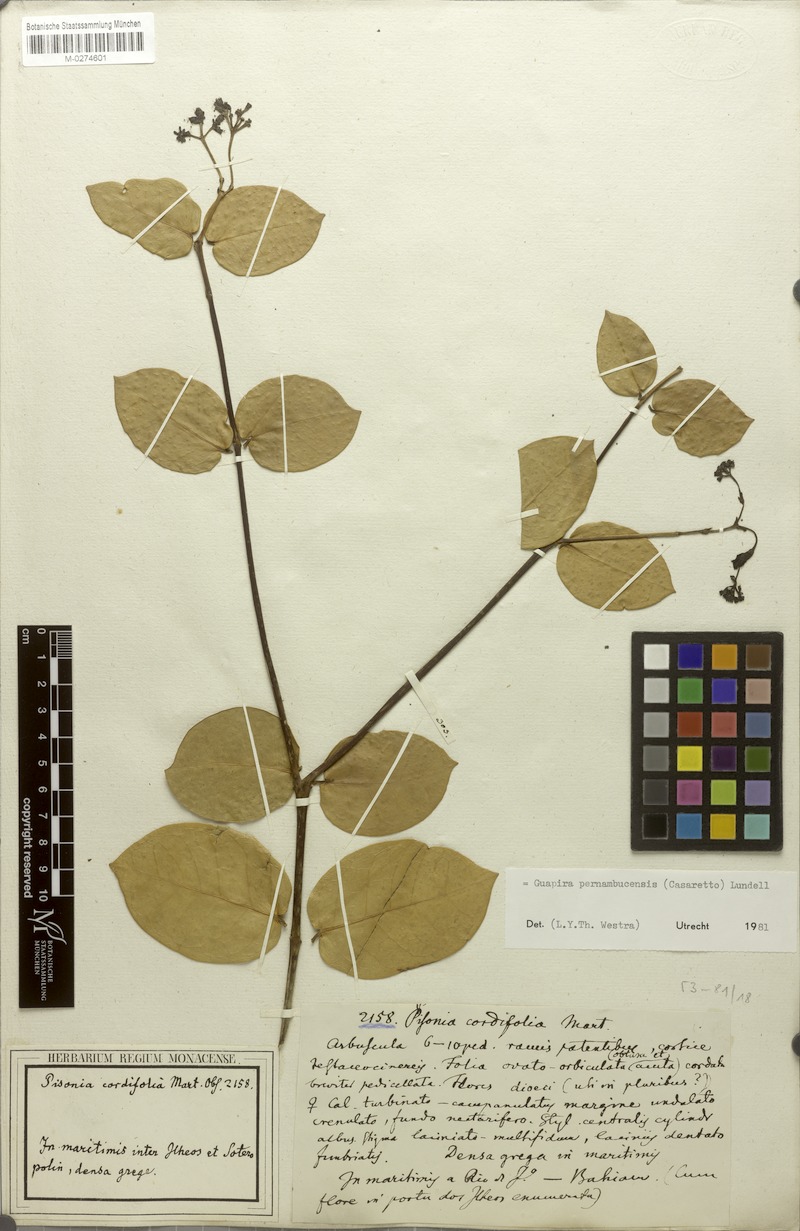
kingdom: Plantae
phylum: Tracheophyta
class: Magnoliopsida
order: Caryophyllales
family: Nyctaginaceae
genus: Guapira
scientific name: Guapira pernambucensis
